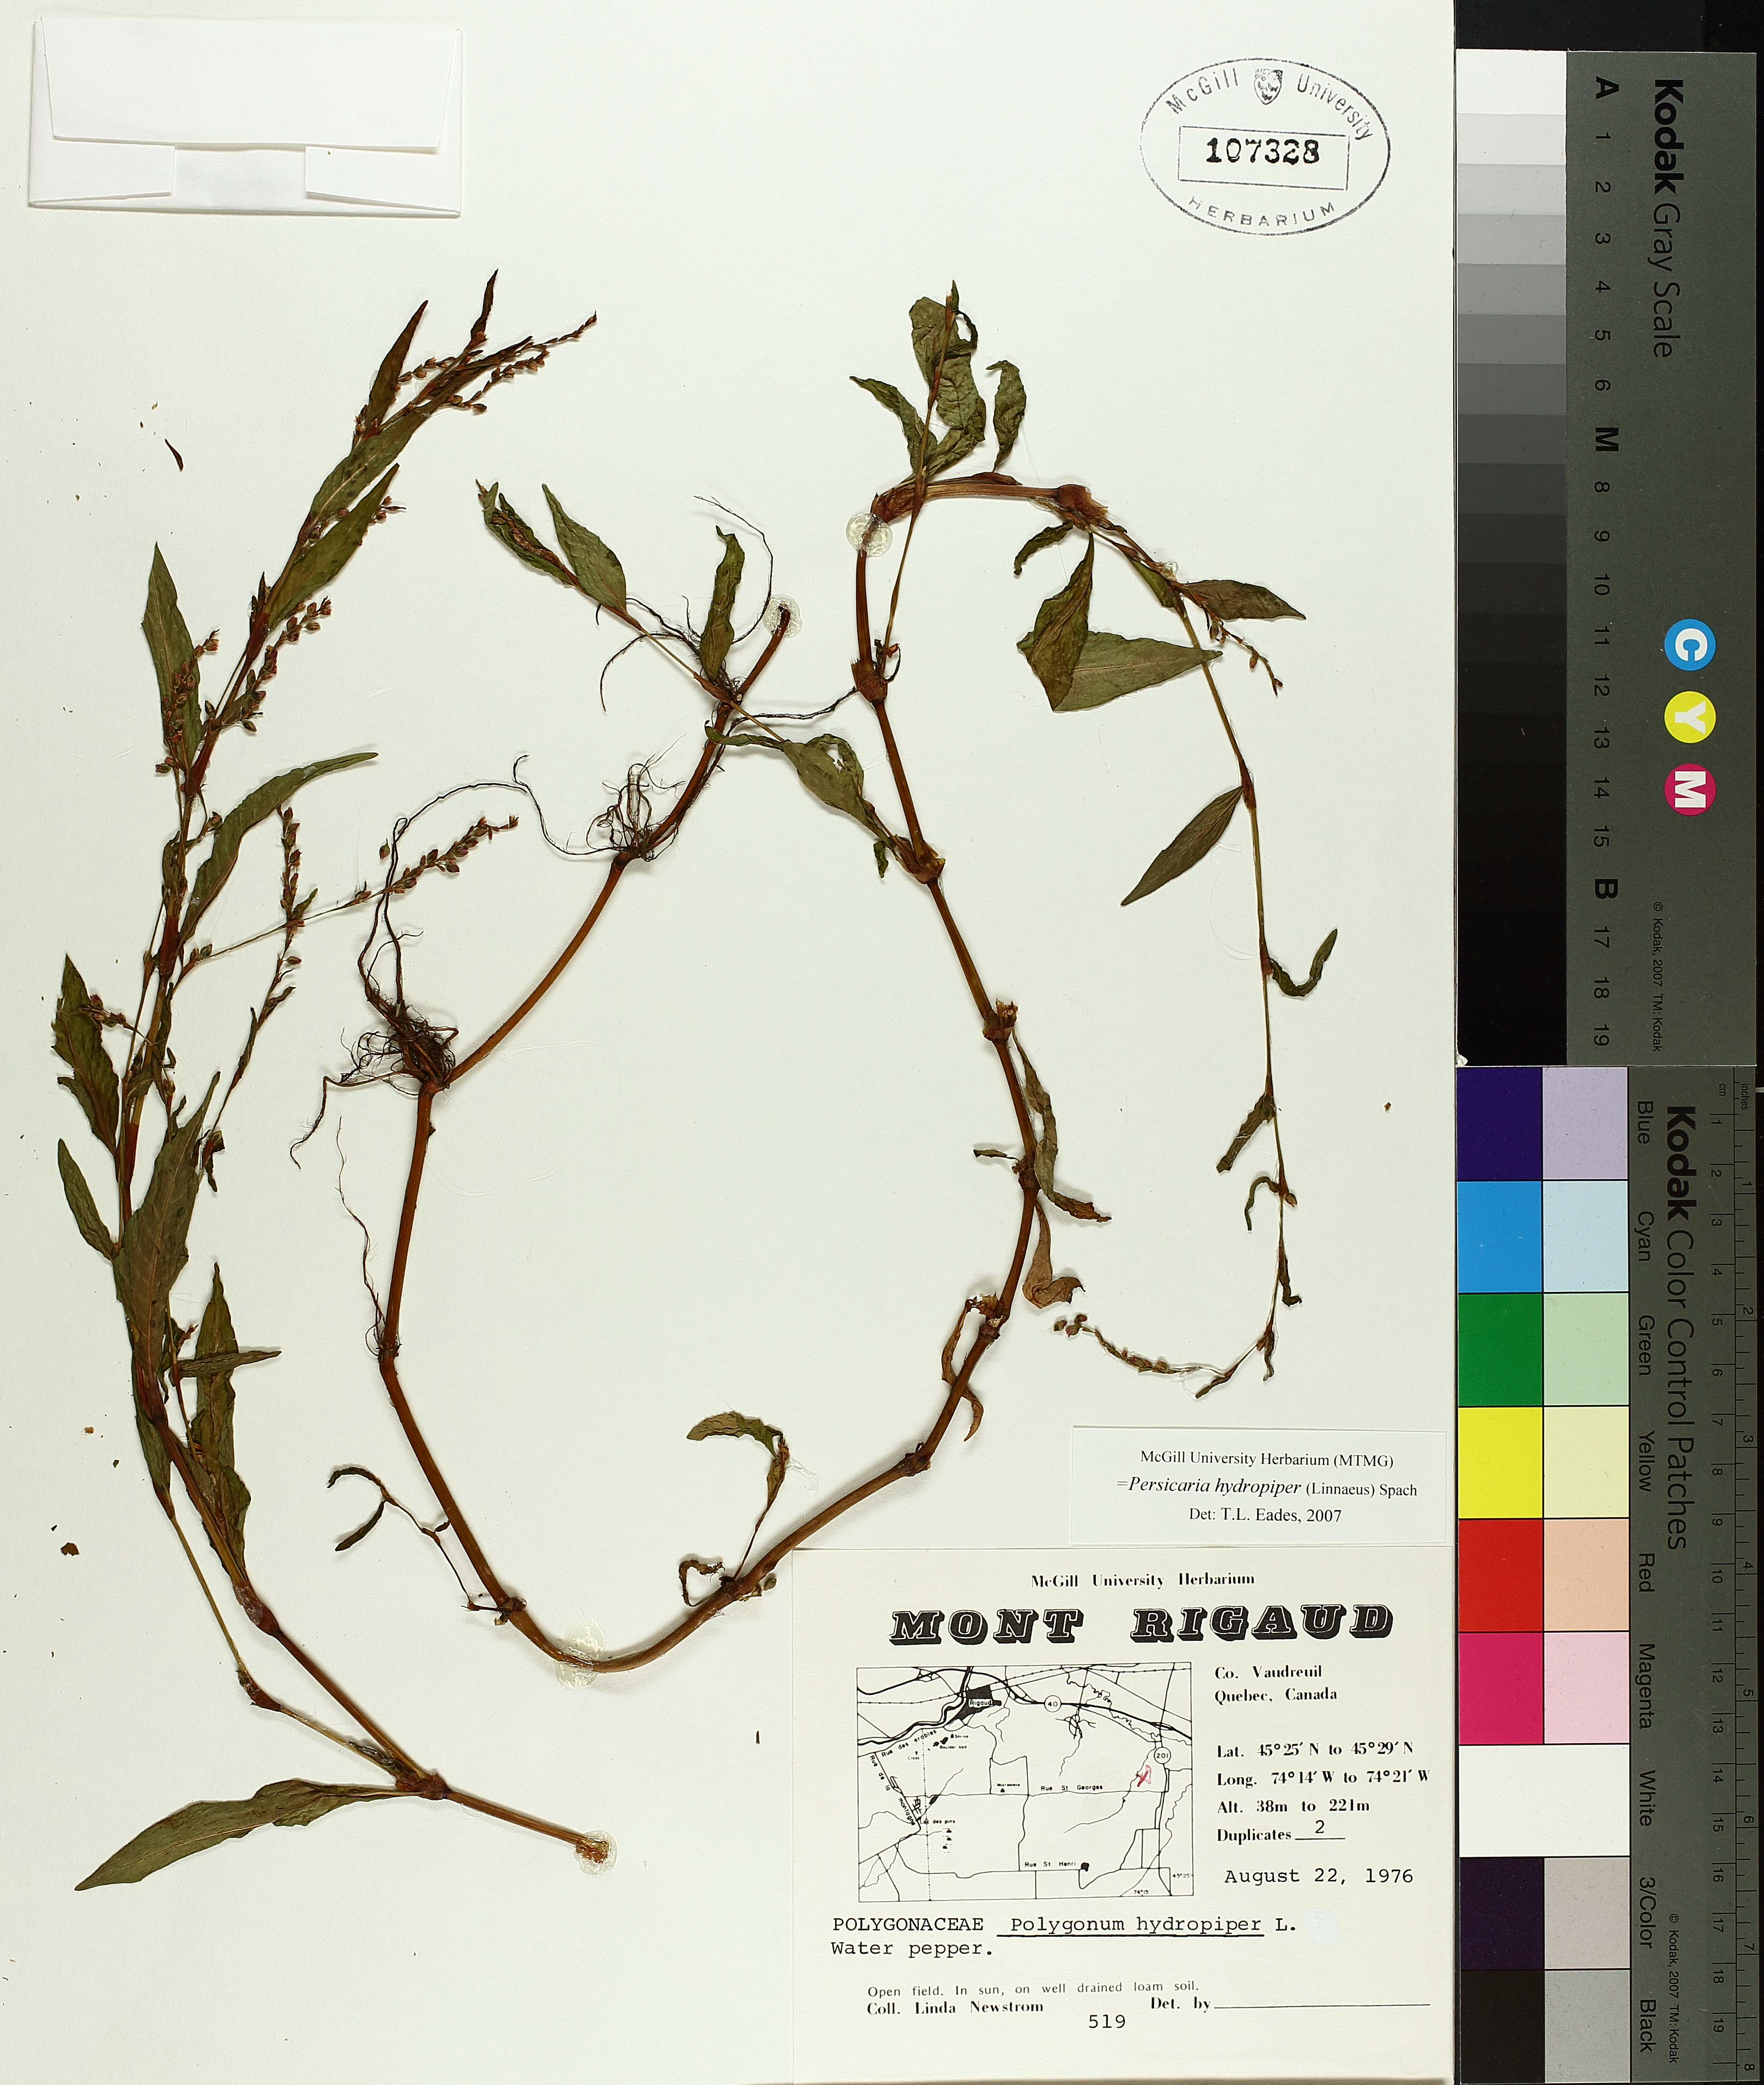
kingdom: Plantae
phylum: Tracheophyta
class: Magnoliopsida
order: Caryophyllales
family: Polygonaceae
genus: Persicaria
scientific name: Persicaria hydropiper
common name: Water-pepper
